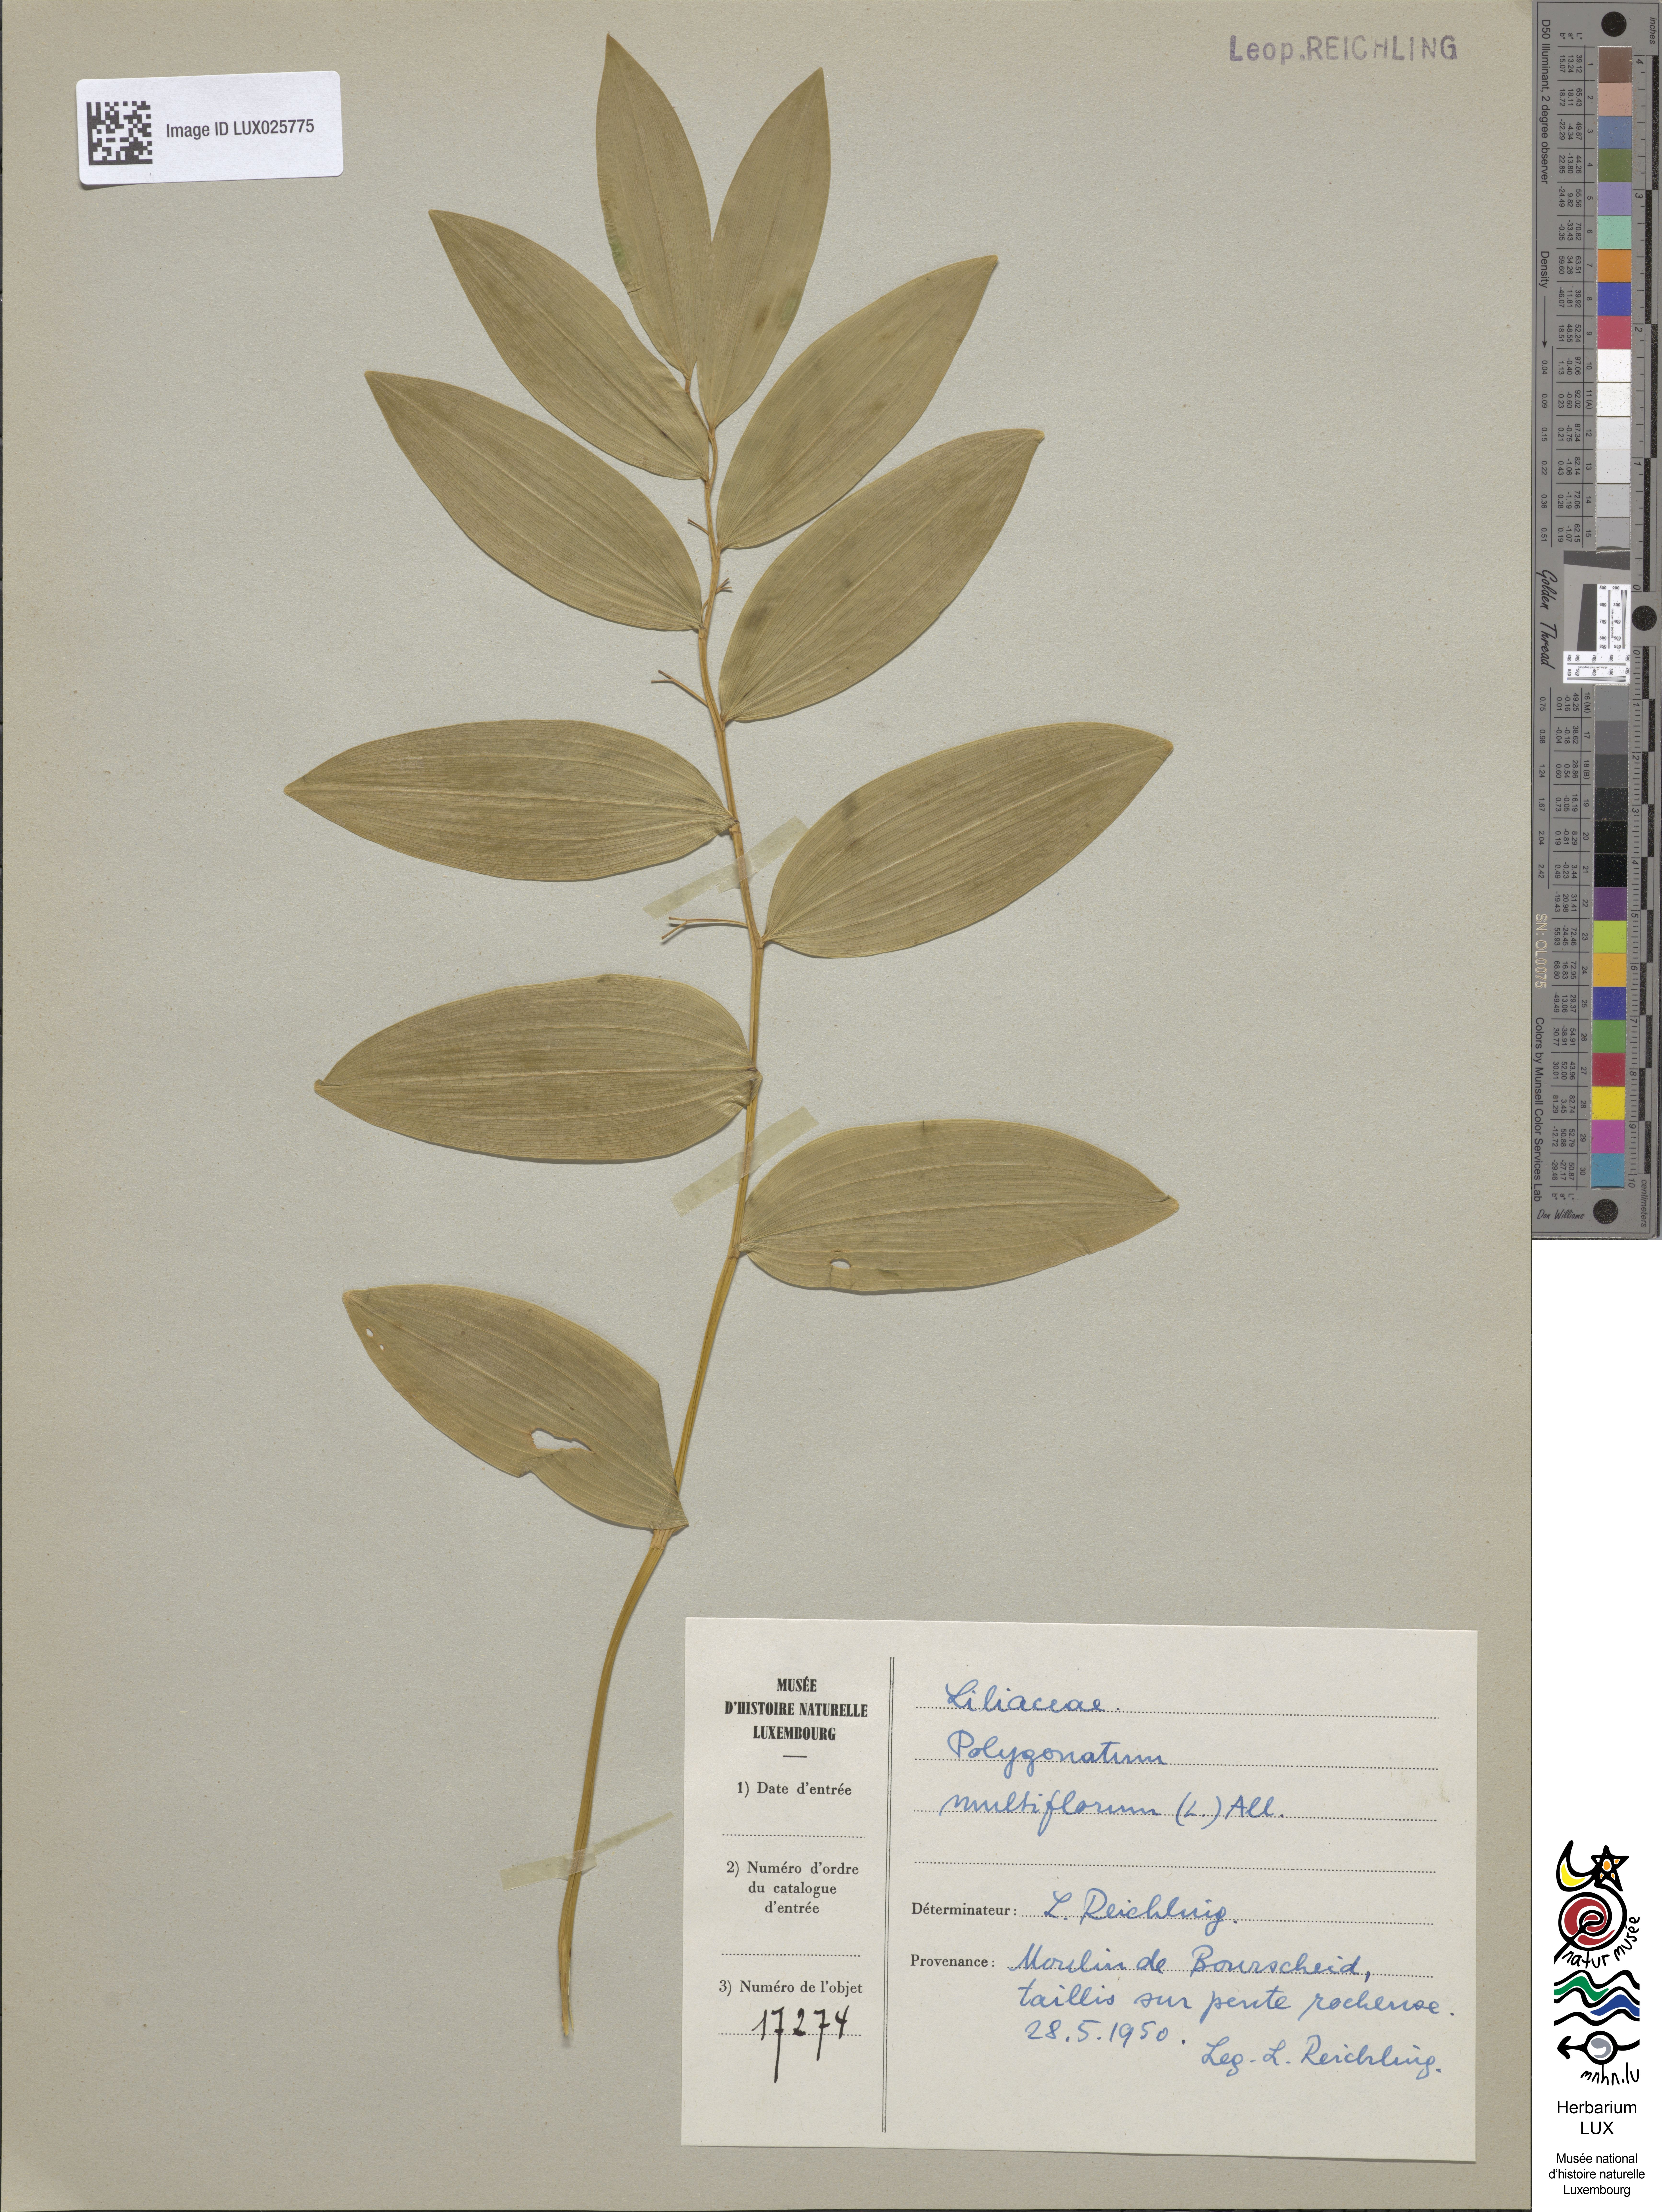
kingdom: Plantae
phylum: Tracheophyta
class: Liliopsida
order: Asparagales
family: Asparagaceae
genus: Polygonatum
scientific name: Polygonatum multiflorum
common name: Solomon's-seal
